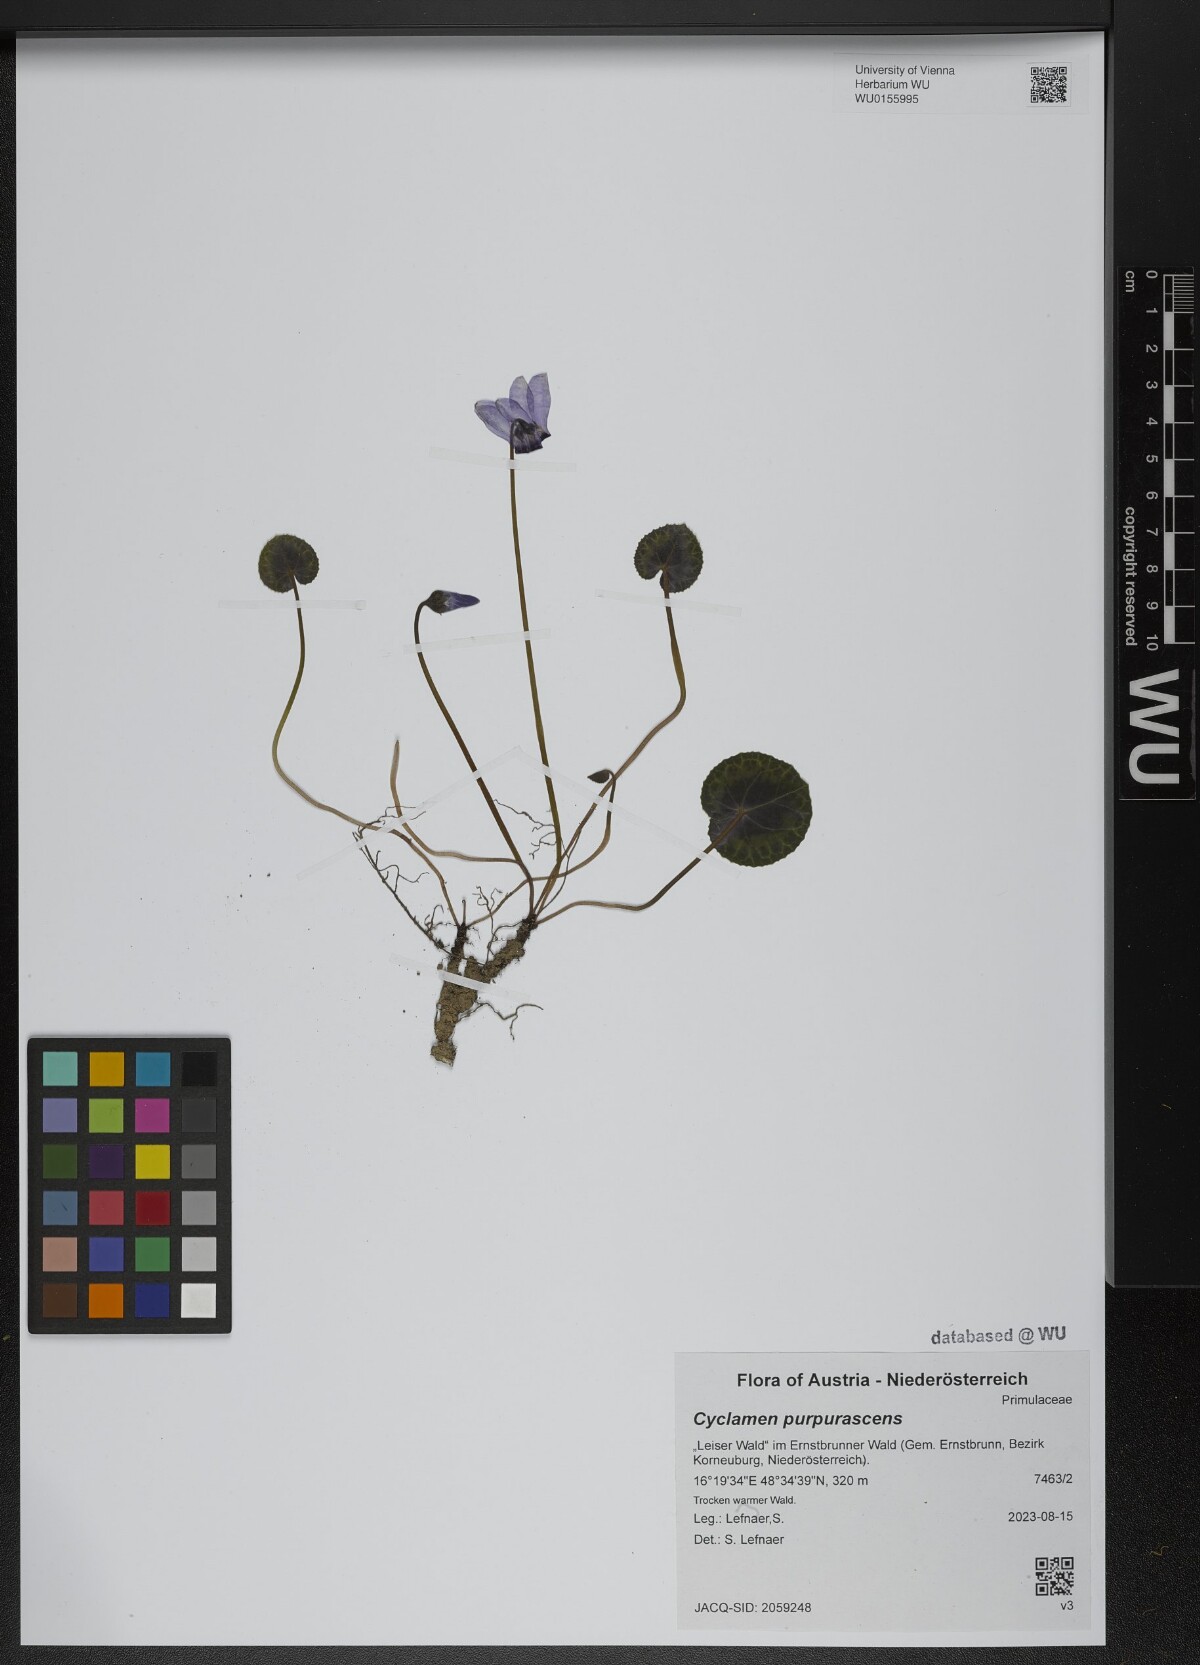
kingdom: Plantae
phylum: Tracheophyta
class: Magnoliopsida
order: Ericales
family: Primulaceae
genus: Cyclamen
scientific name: Cyclamen purpurascens
